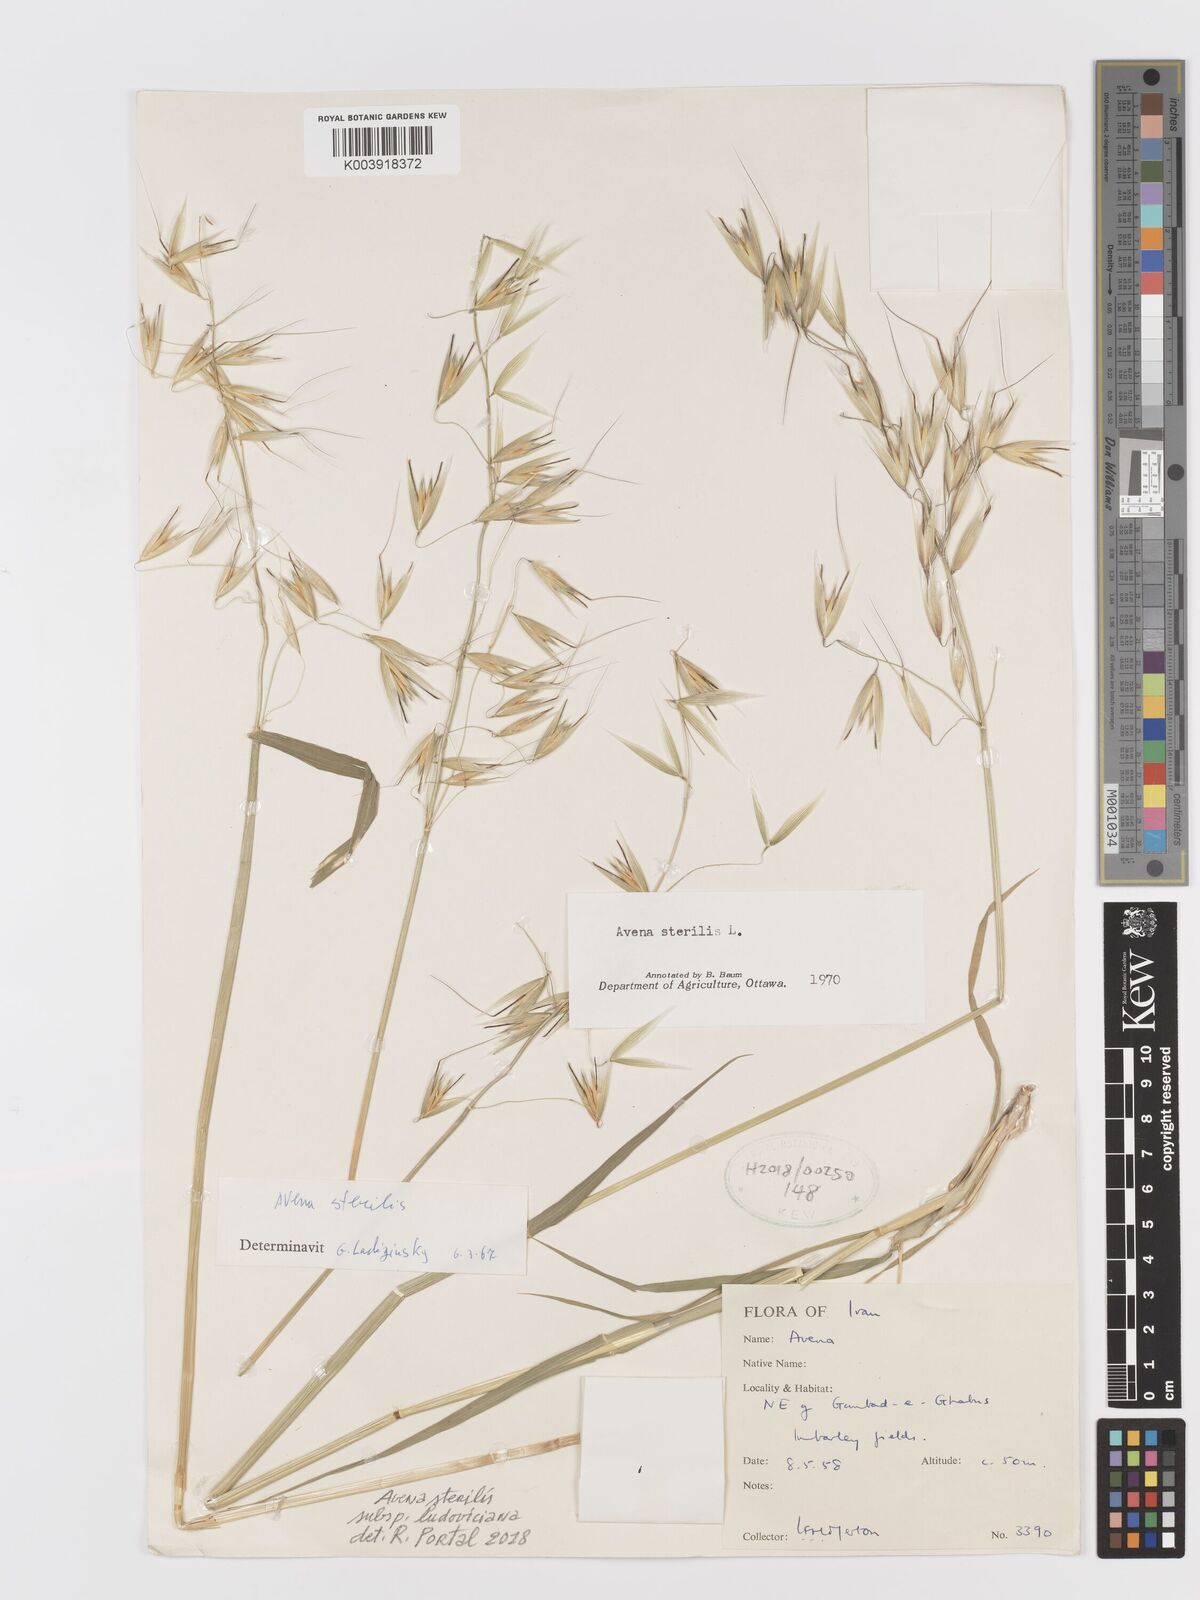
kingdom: Plantae
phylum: Tracheophyta
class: Liliopsida
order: Poales
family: Poaceae
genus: Avena
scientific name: Avena sterilis
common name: Animated oat
